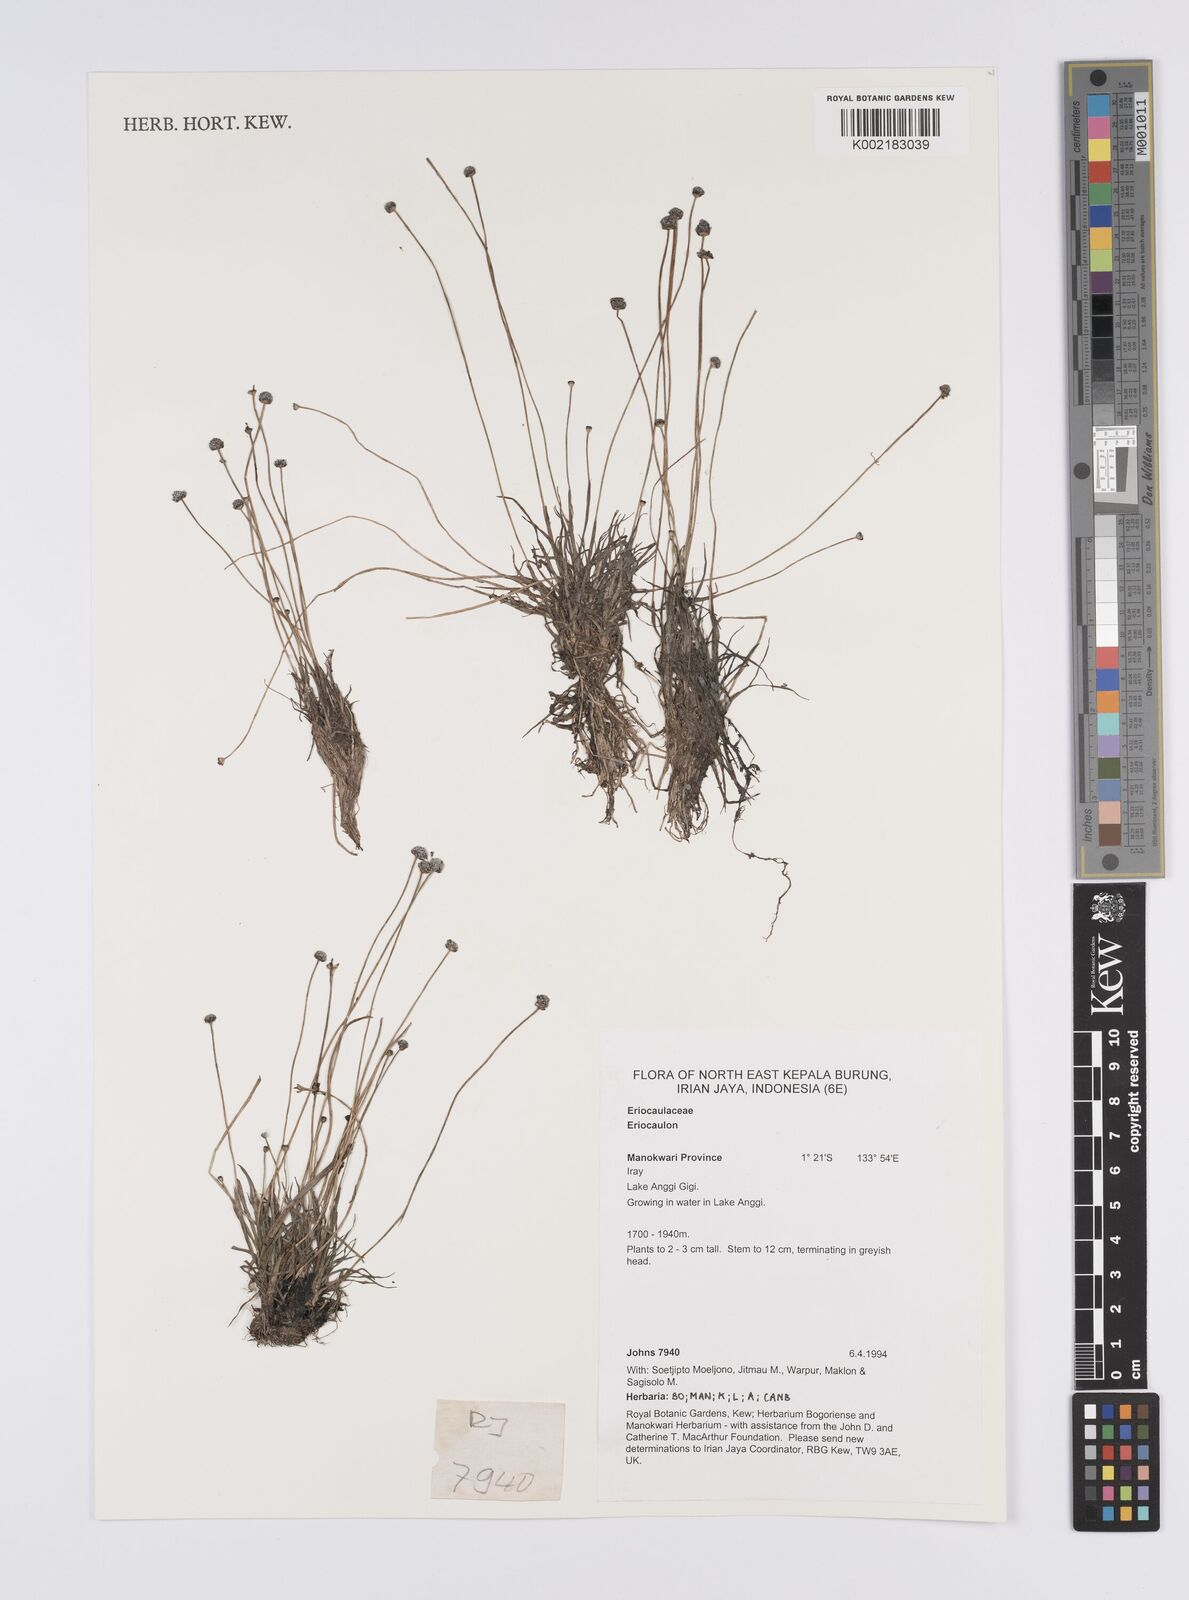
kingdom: Plantae
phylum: Tracheophyta
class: Liliopsida
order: Poales
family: Eriocaulaceae
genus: Eriocaulon
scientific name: Eriocaulon
